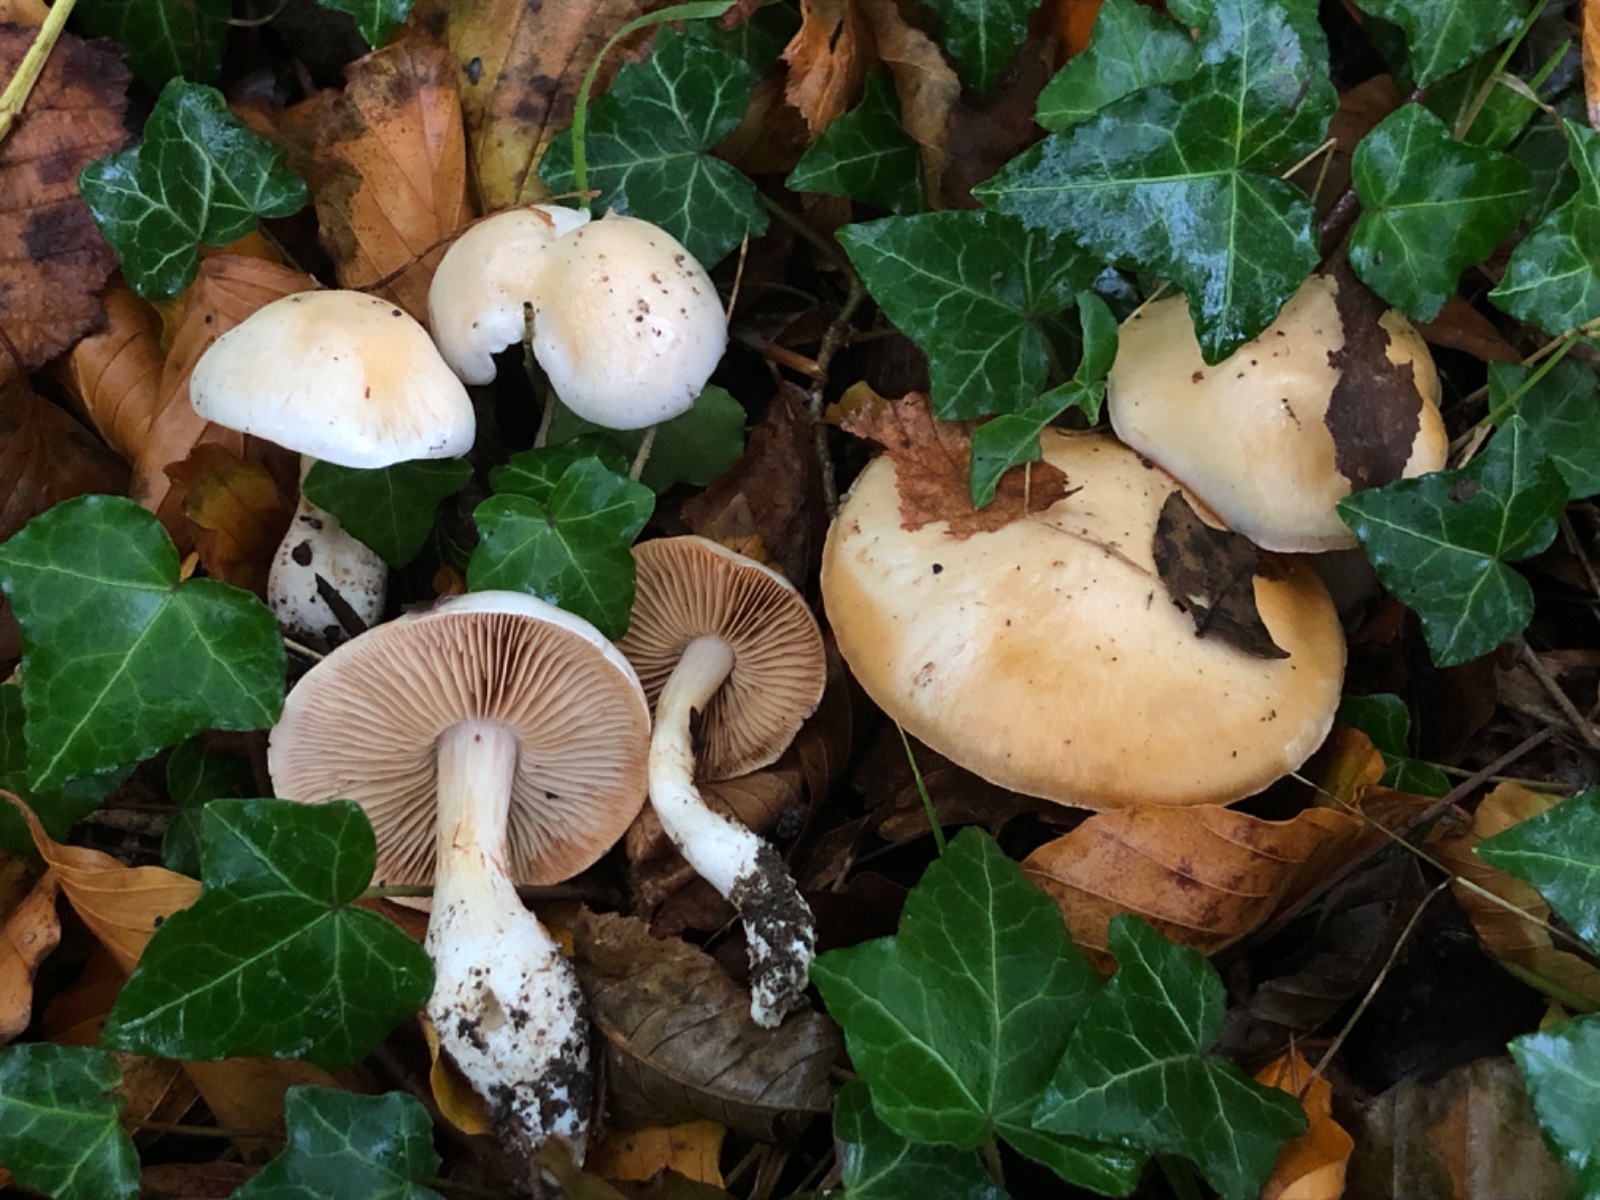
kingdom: Fungi
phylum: Basidiomycota
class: Agaricomycetes
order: Agaricales
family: Cortinariaceae
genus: Thaxterogaster
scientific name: Thaxterogaster barbatus
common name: elfenbens-slørhat
